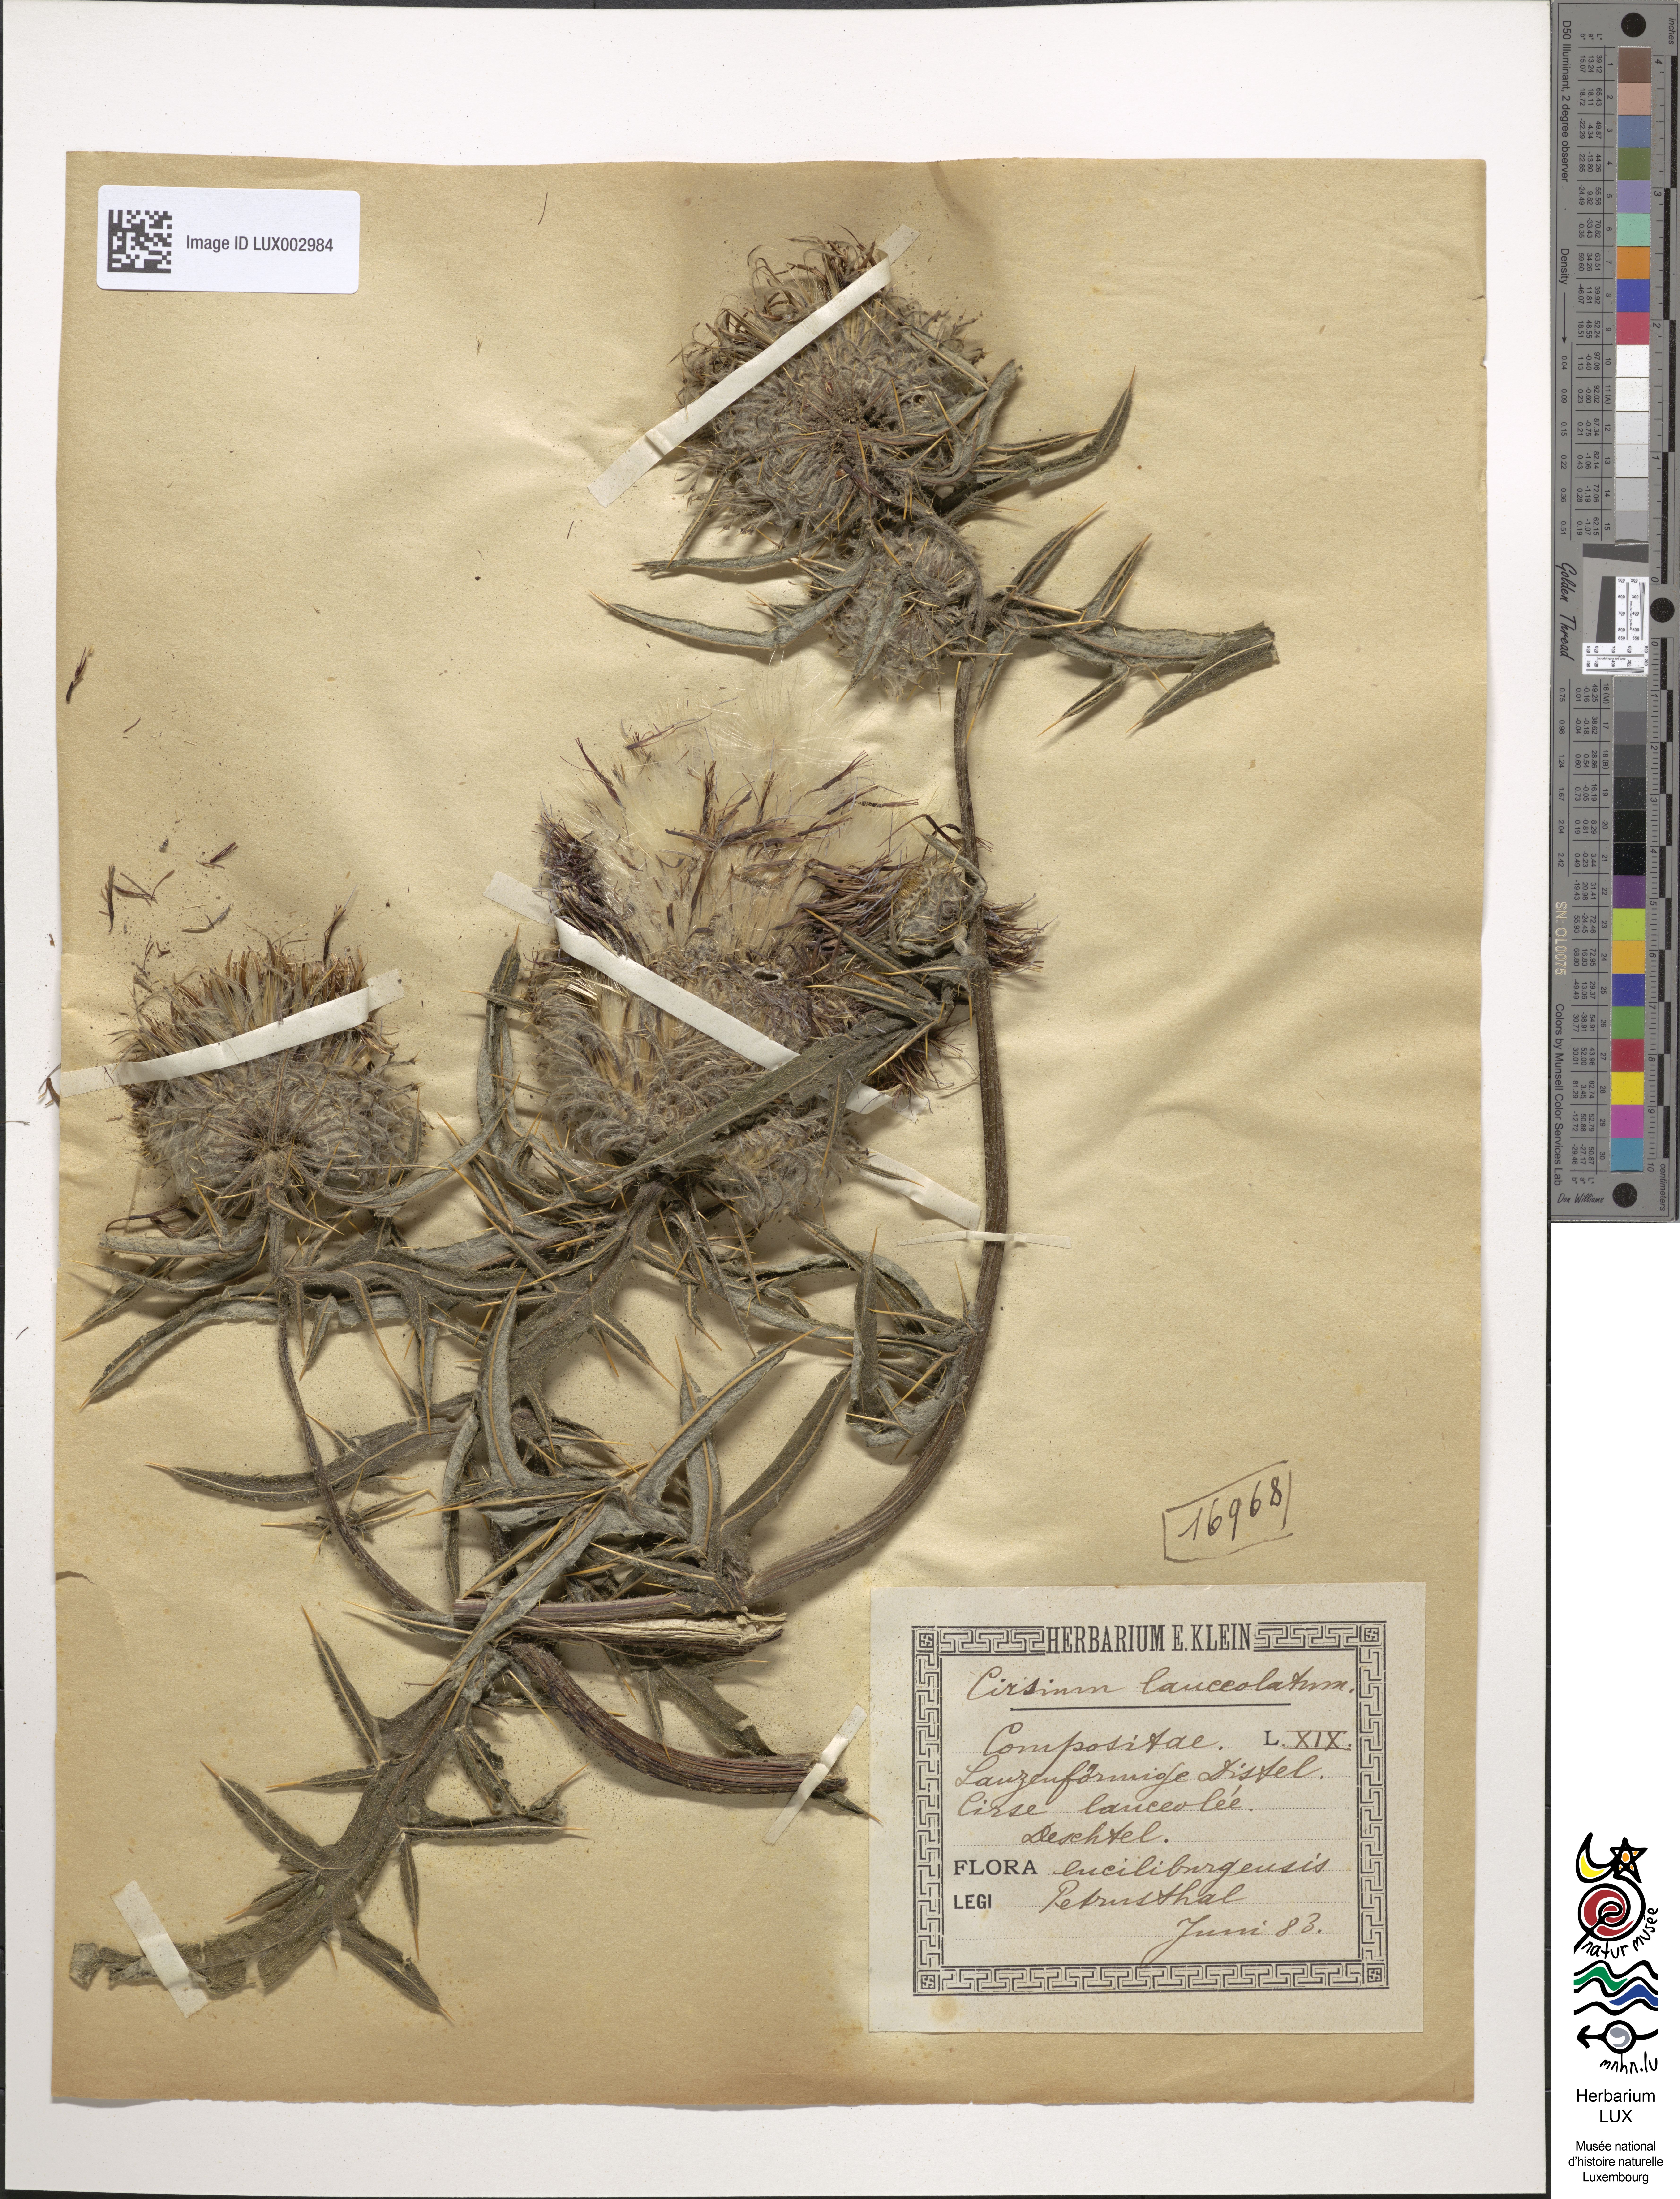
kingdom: Plantae
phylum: Tracheophyta
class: Magnoliopsida
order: Asterales
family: Asteraceae
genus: Cirsium
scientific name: Cirsium vulgare
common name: Bull thistle
